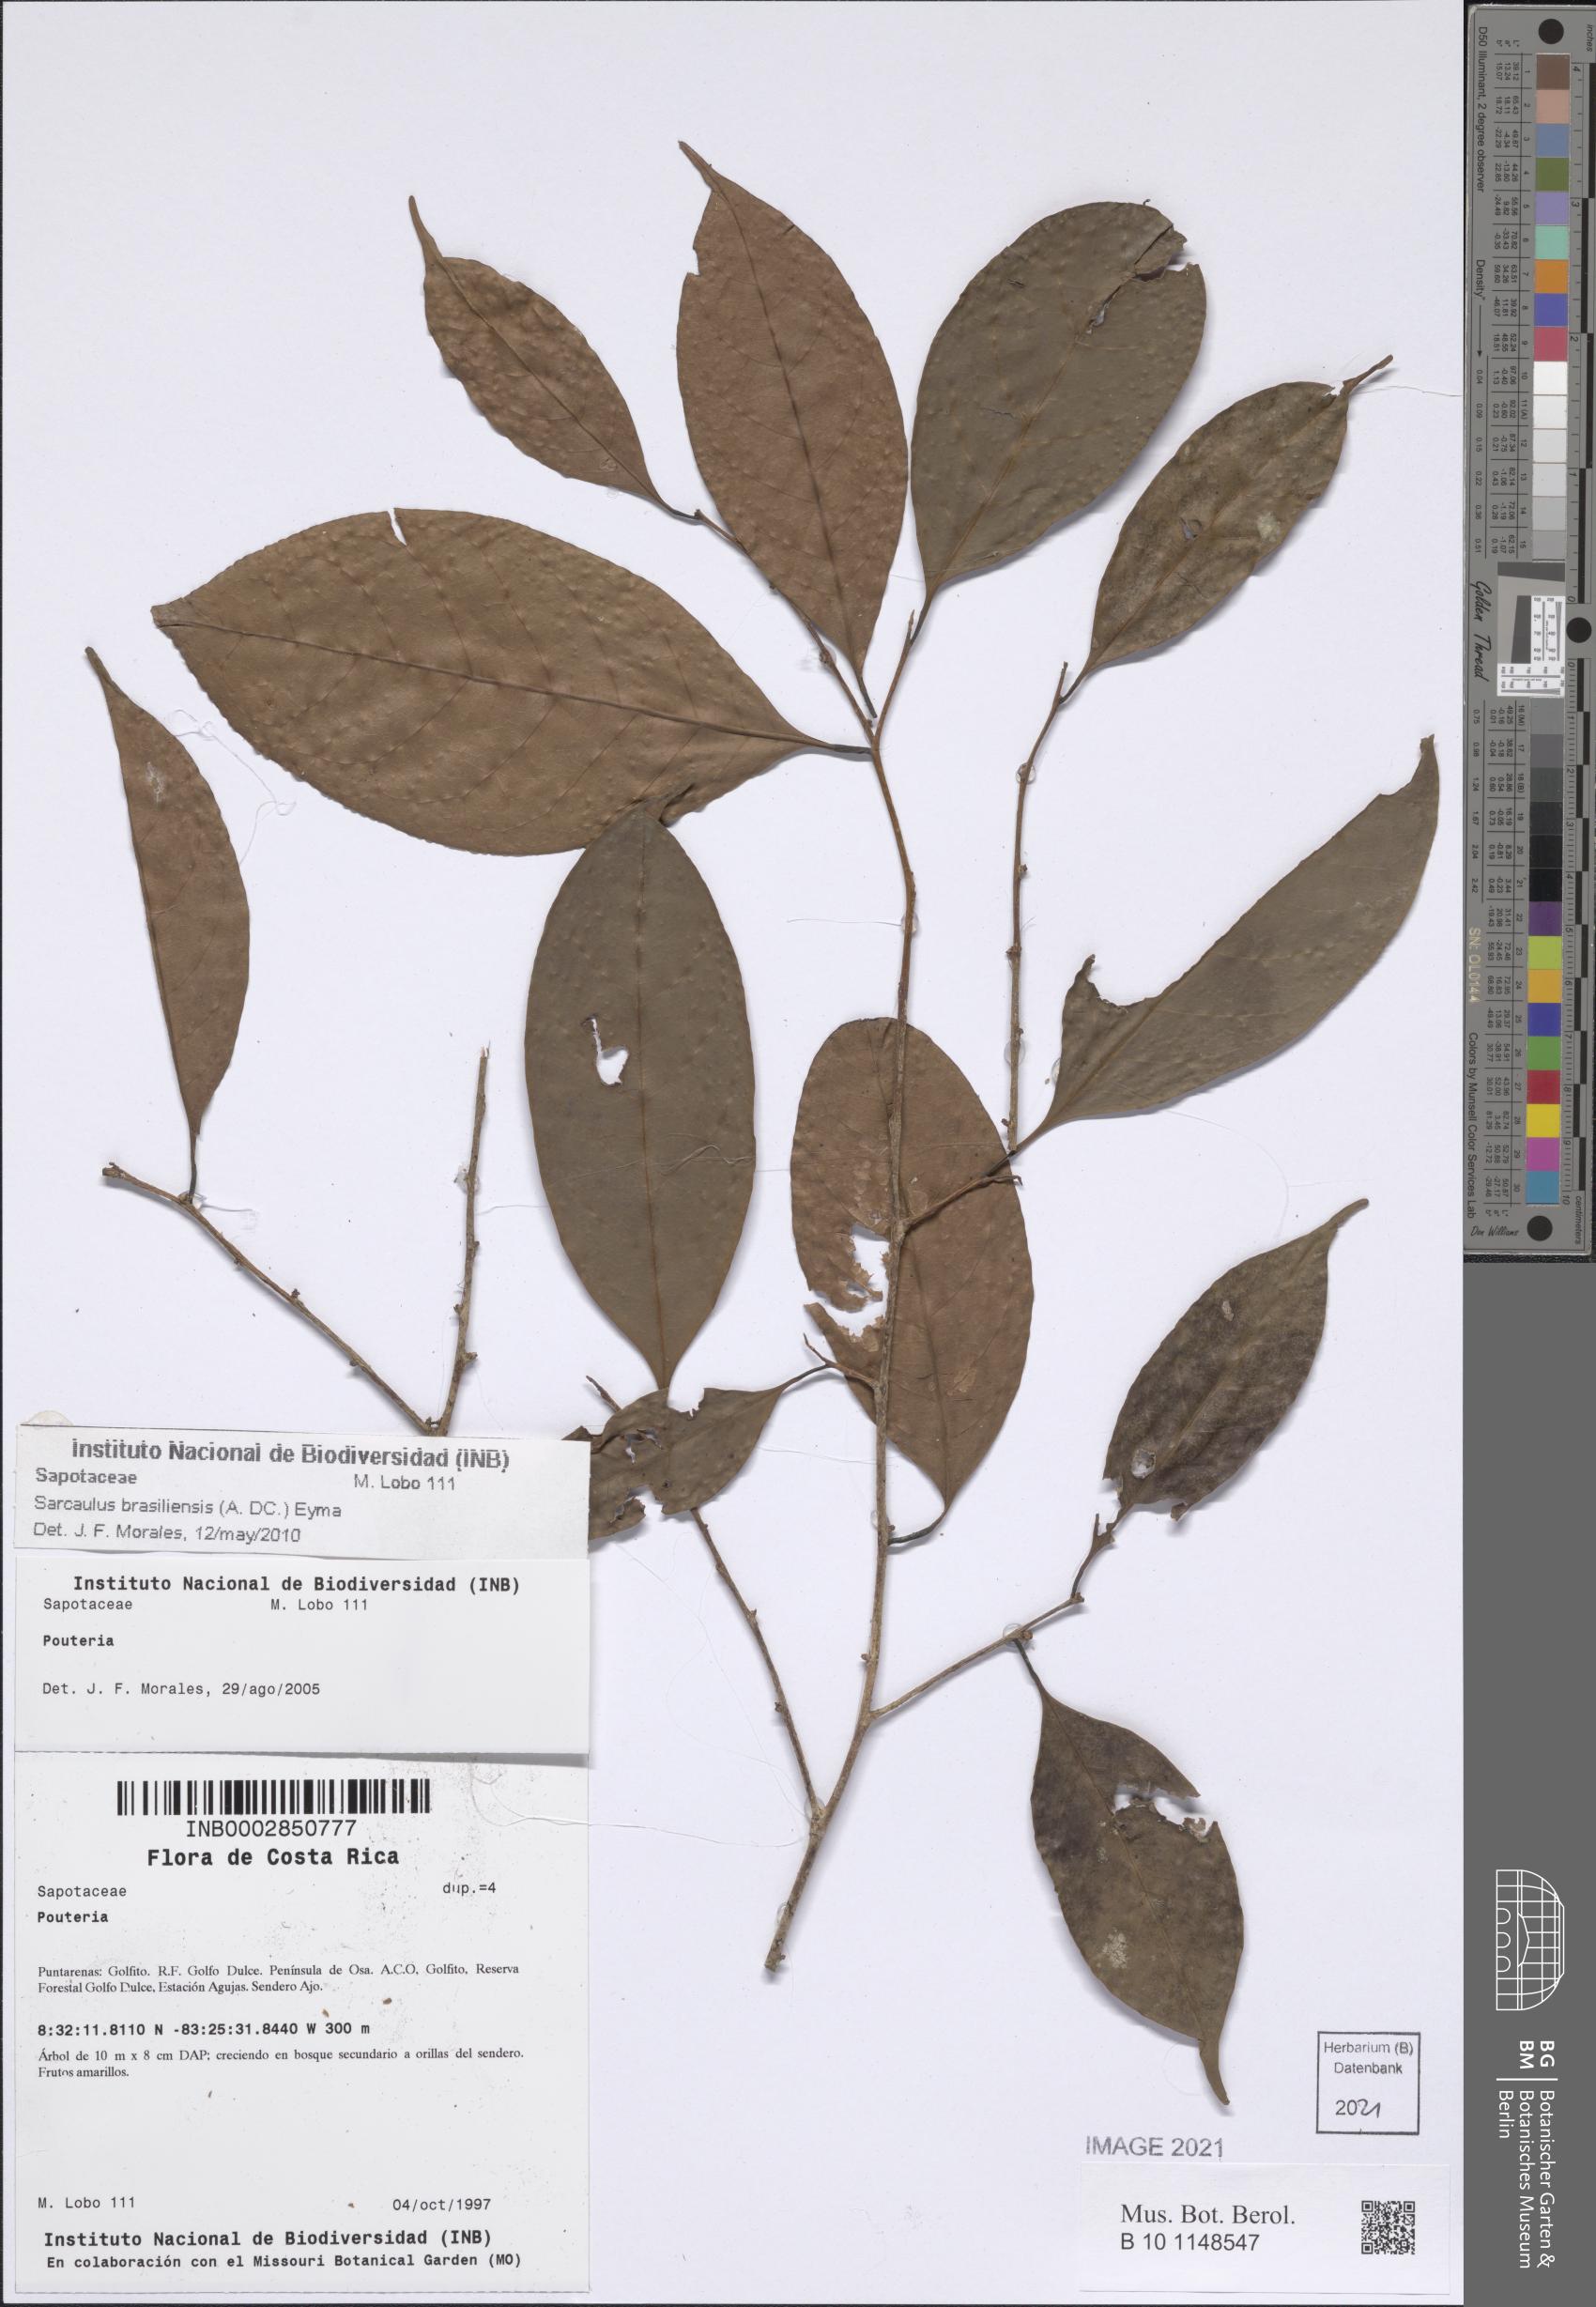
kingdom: Plantae
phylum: Tracheophyta
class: Magnoliopsida
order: Ericales
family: Sapotaceae
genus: Sarcaulus
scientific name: Sarcaulus brasiliensis
